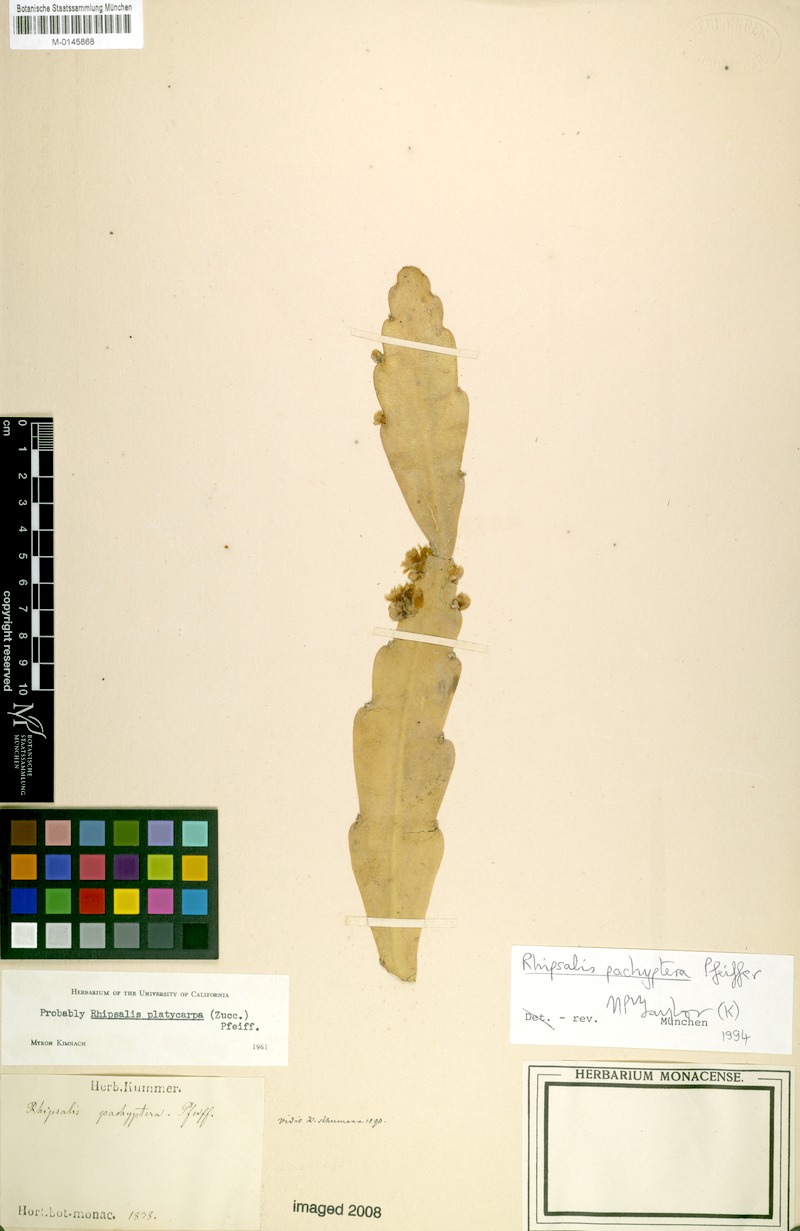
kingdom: Plantae
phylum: Tracheophyta
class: Magnoliopsida
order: Caryophyllales
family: Cactaceae
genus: Rhipsalis
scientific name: Rhipsalis pachyptera
